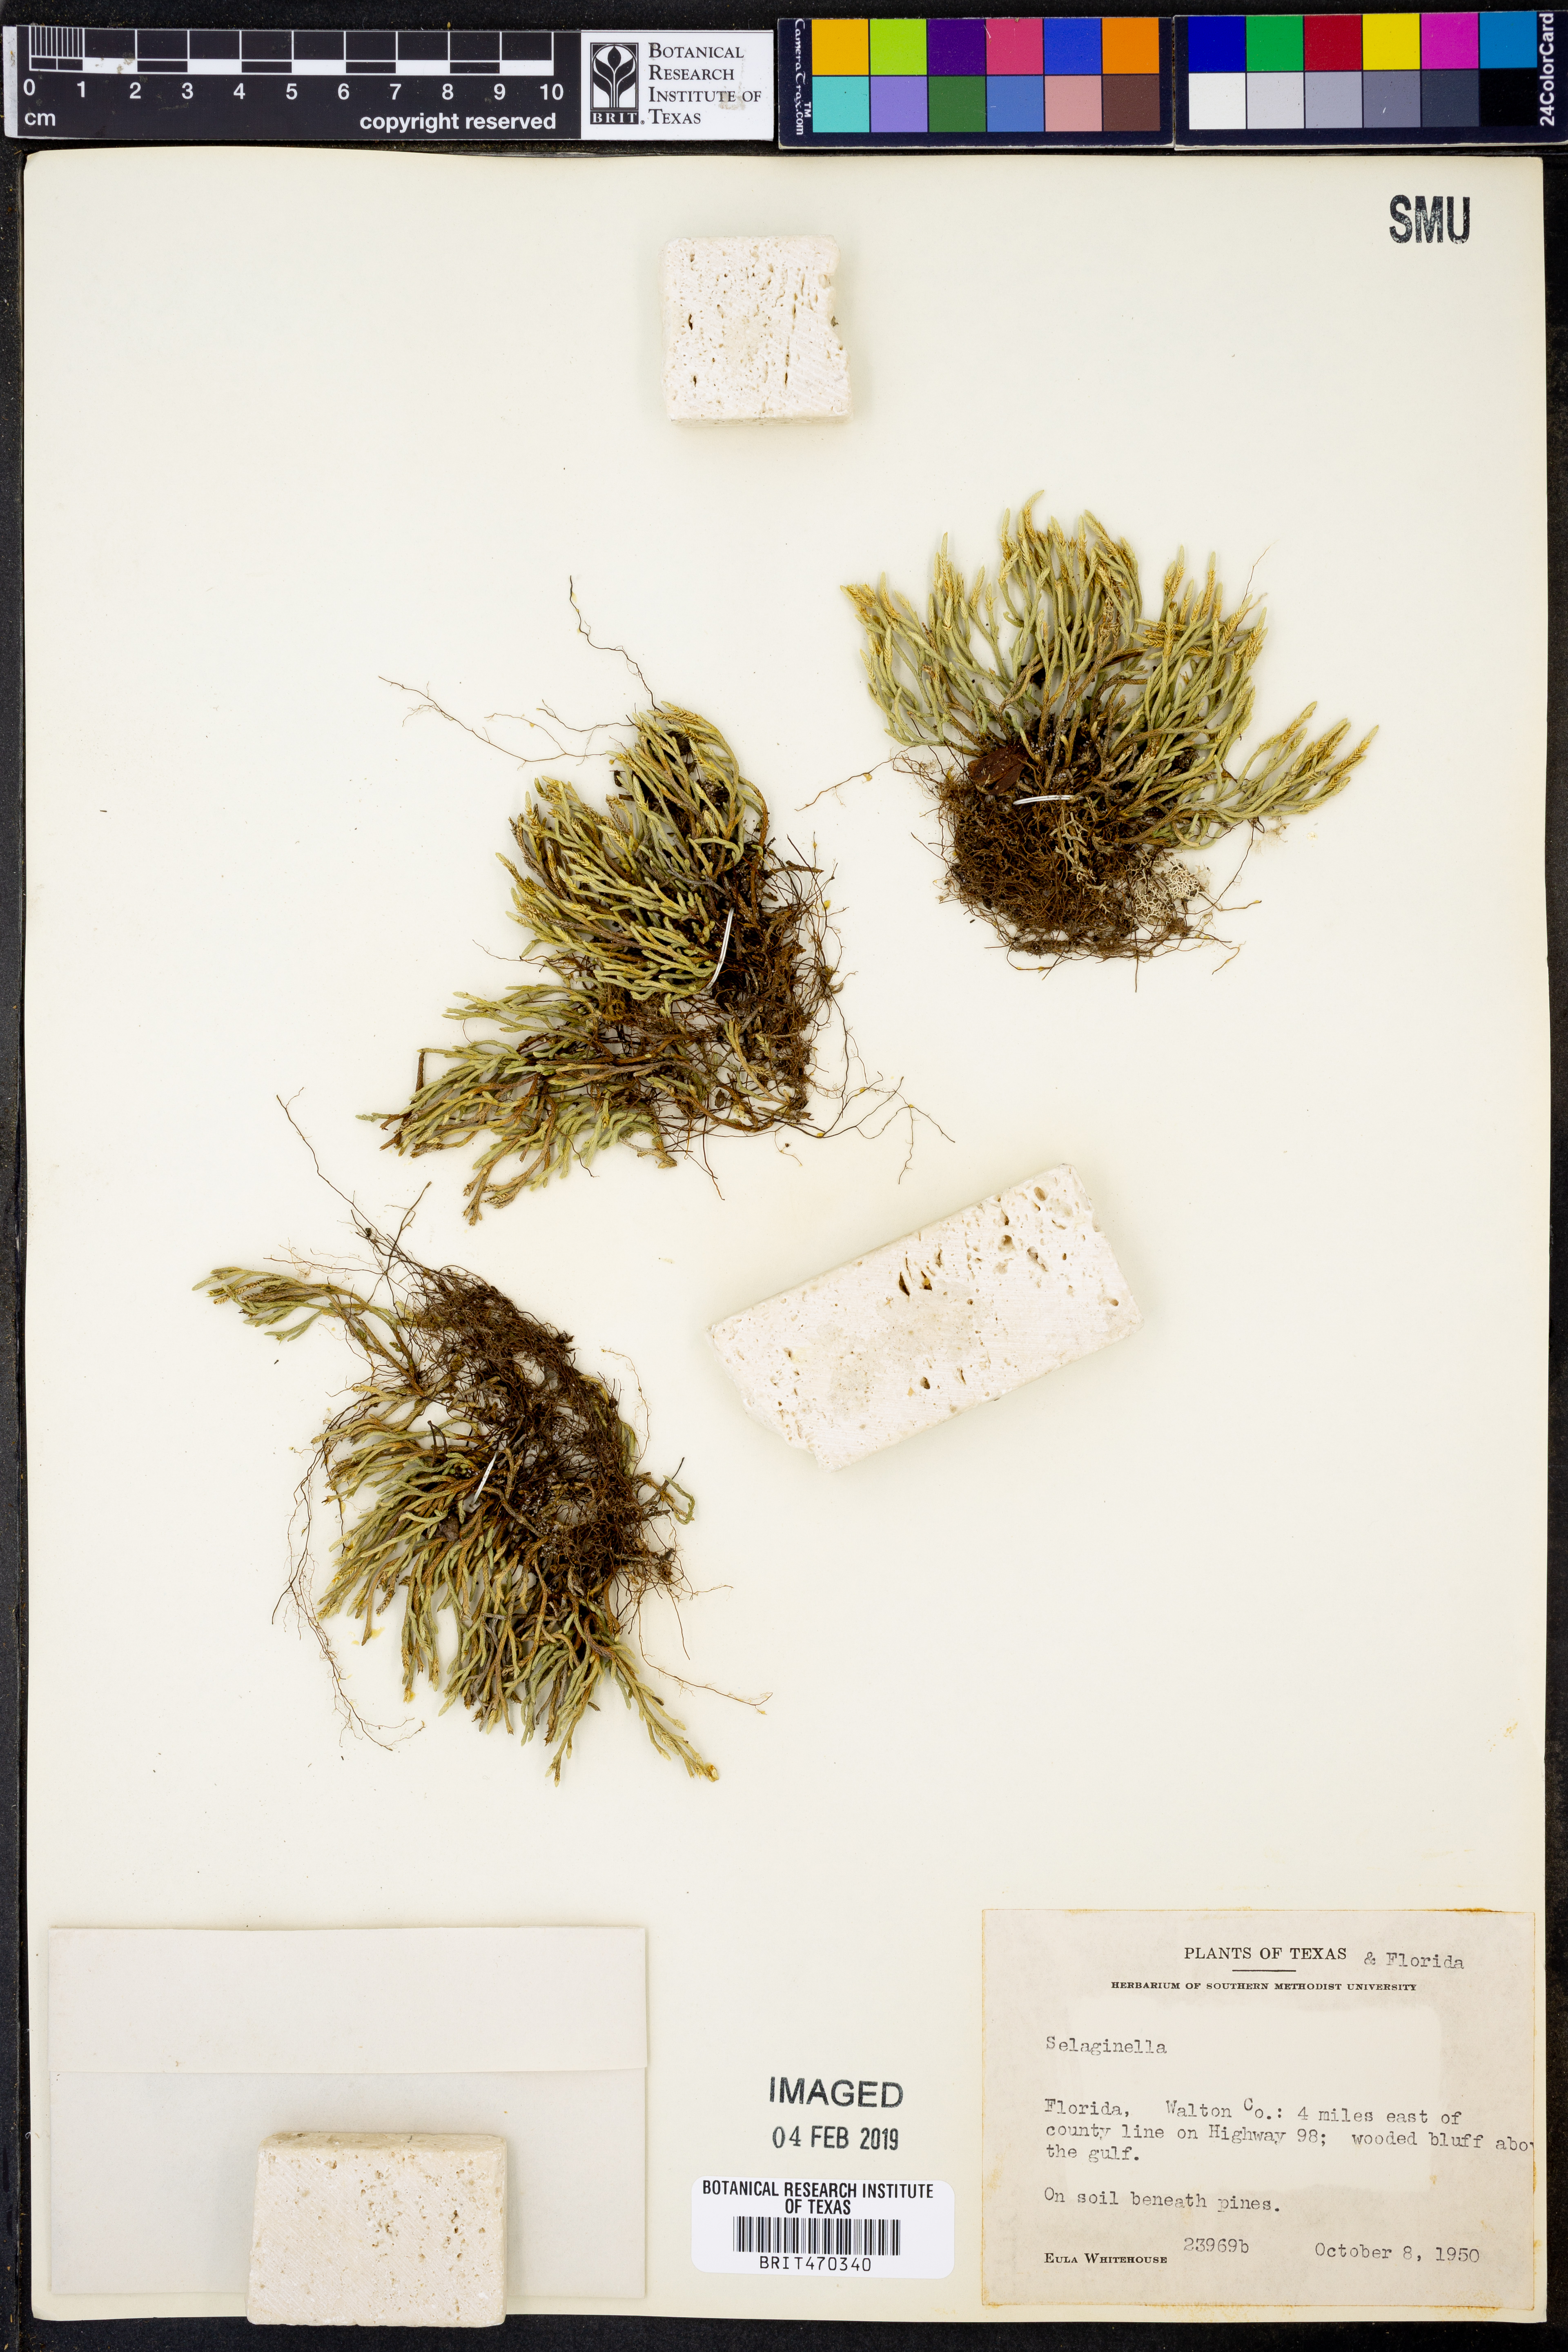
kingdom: Plantae
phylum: Tracheophyta
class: Lycopodiopsida
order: Selaginellales
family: Selaginellaceae
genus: Selaginella
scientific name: Selaginella
